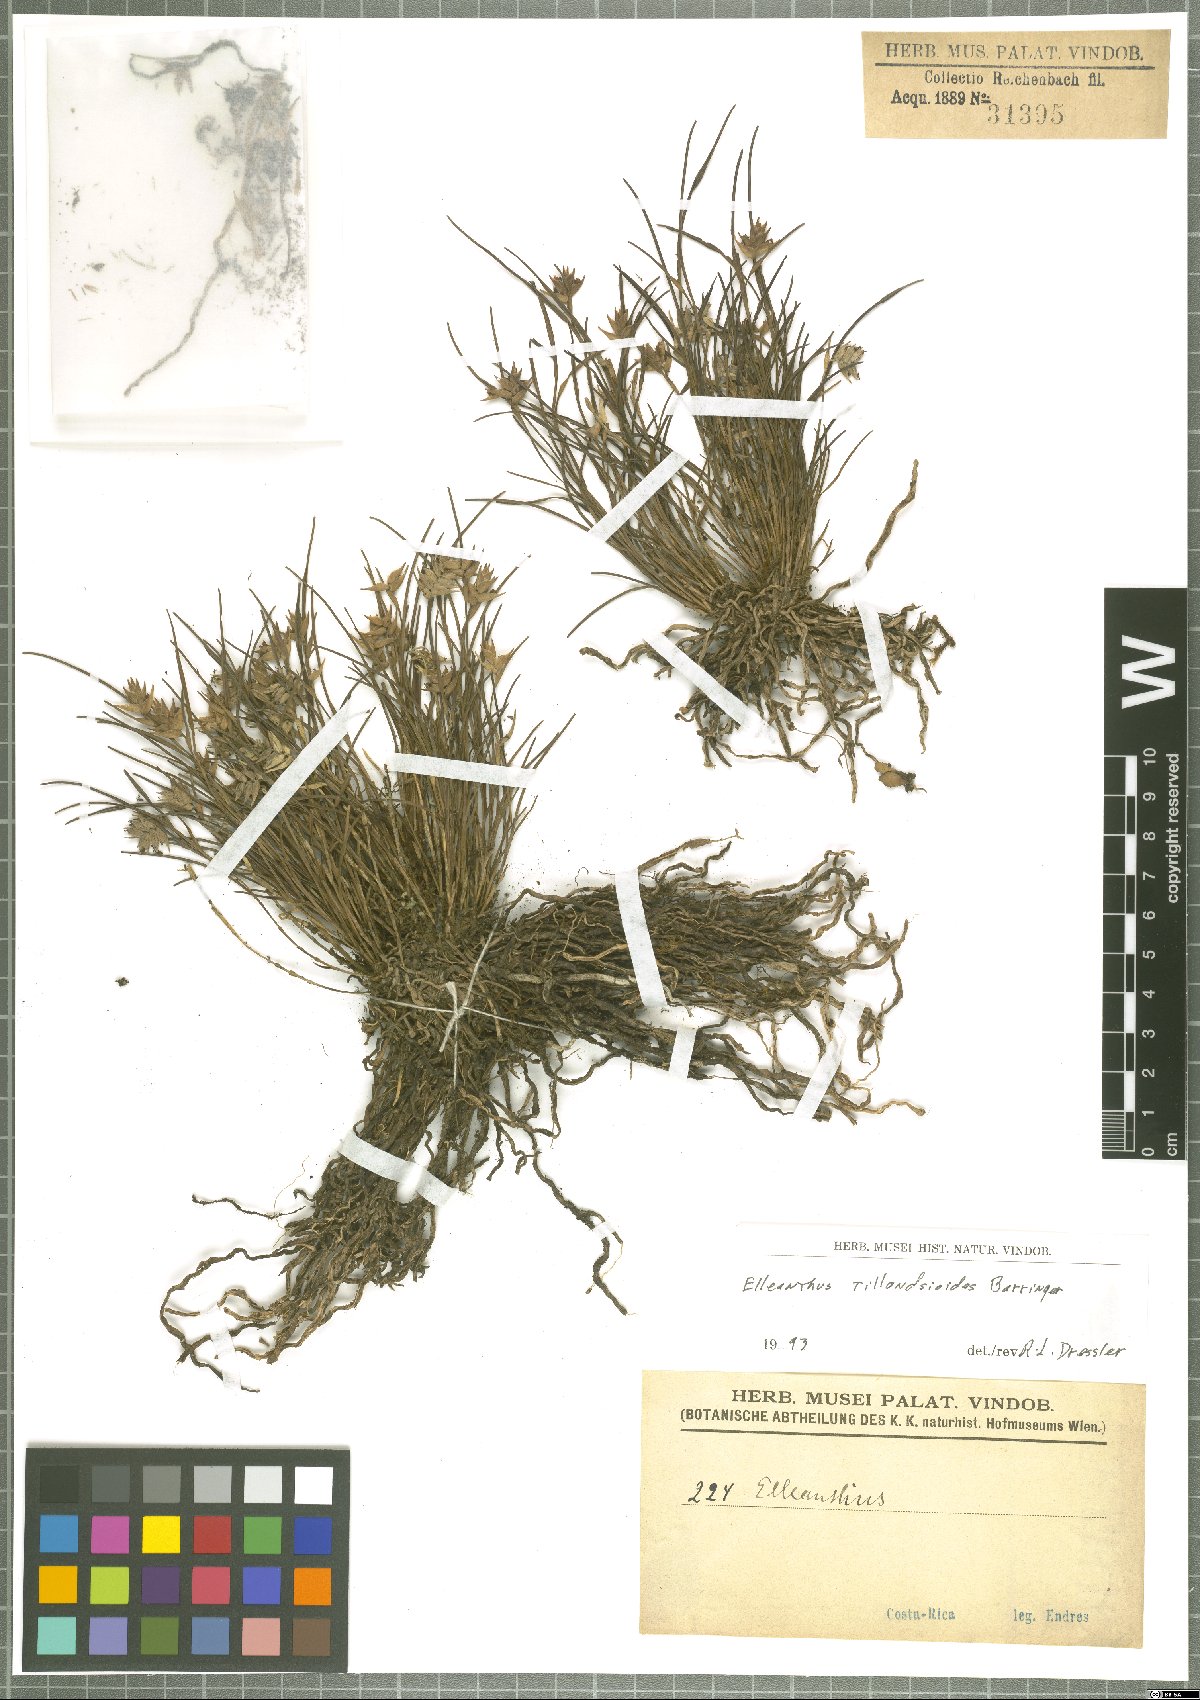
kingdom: Plantae
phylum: Tracheophyta
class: Liliopsida
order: Asparagales
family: Orchidaceae
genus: Elleanthus
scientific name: Elleanthus tillandsioides
